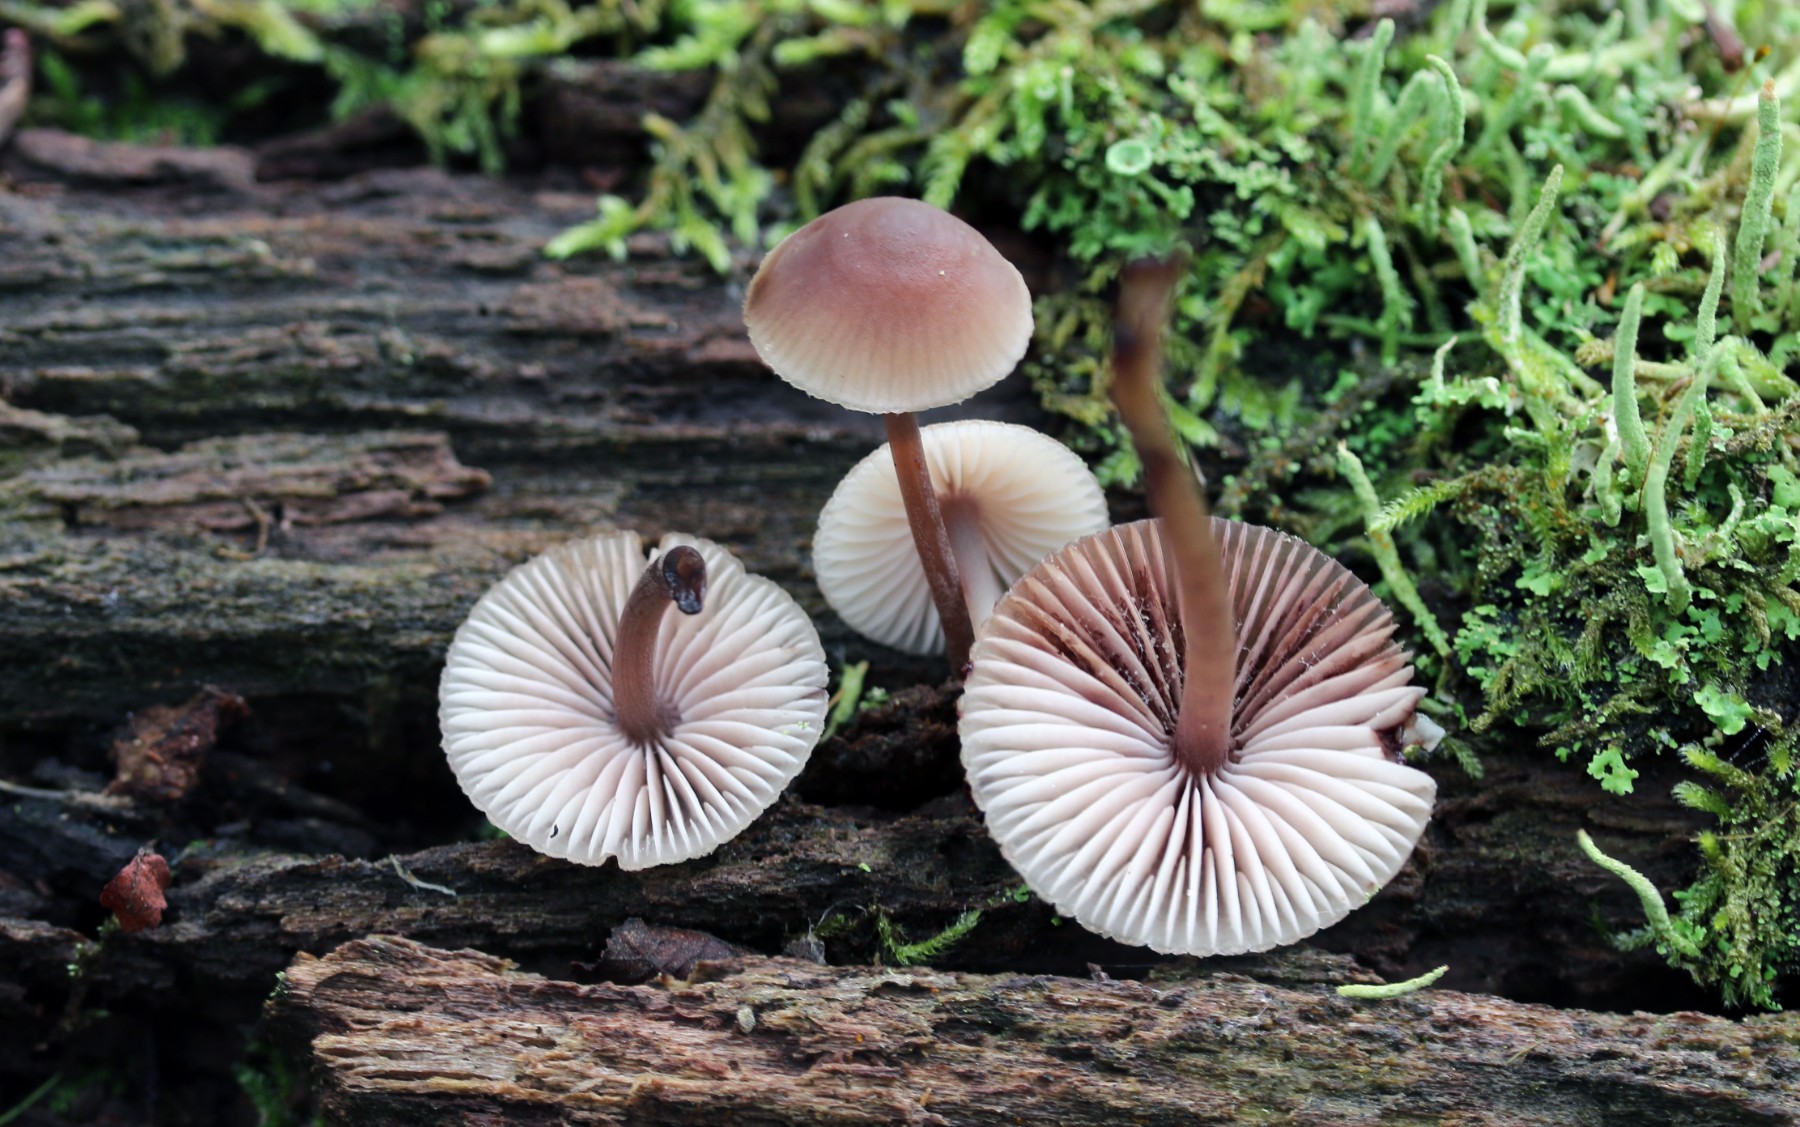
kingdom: Fungi
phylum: Basidiomycota
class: Agaricomycetes
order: Agaricales
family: Mycenaceae
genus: Mycena
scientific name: Mycena haematopus
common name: blødende huesvamp
